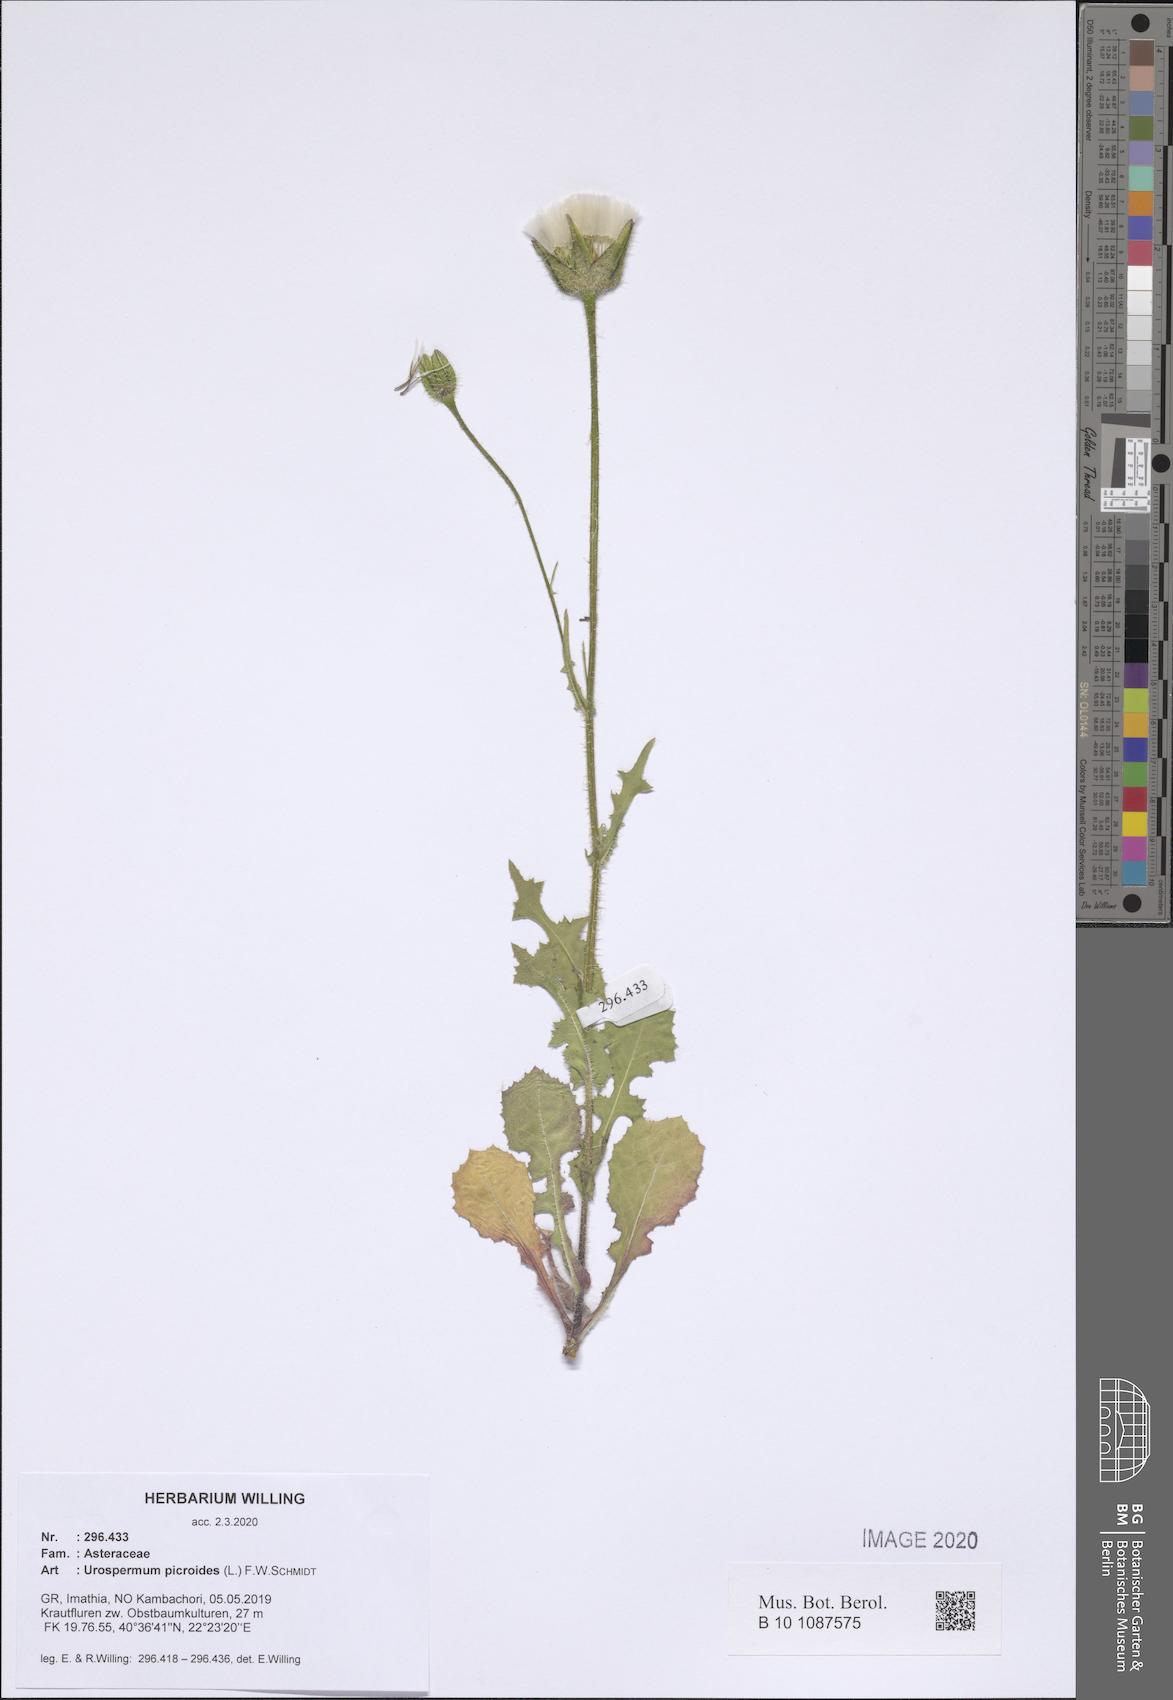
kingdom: Plantae
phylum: Tracheophyta
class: Magnoliopsida
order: Asterales
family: Asteraceae
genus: Urospermum
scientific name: Urospermum picroides
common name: False hawkbit
